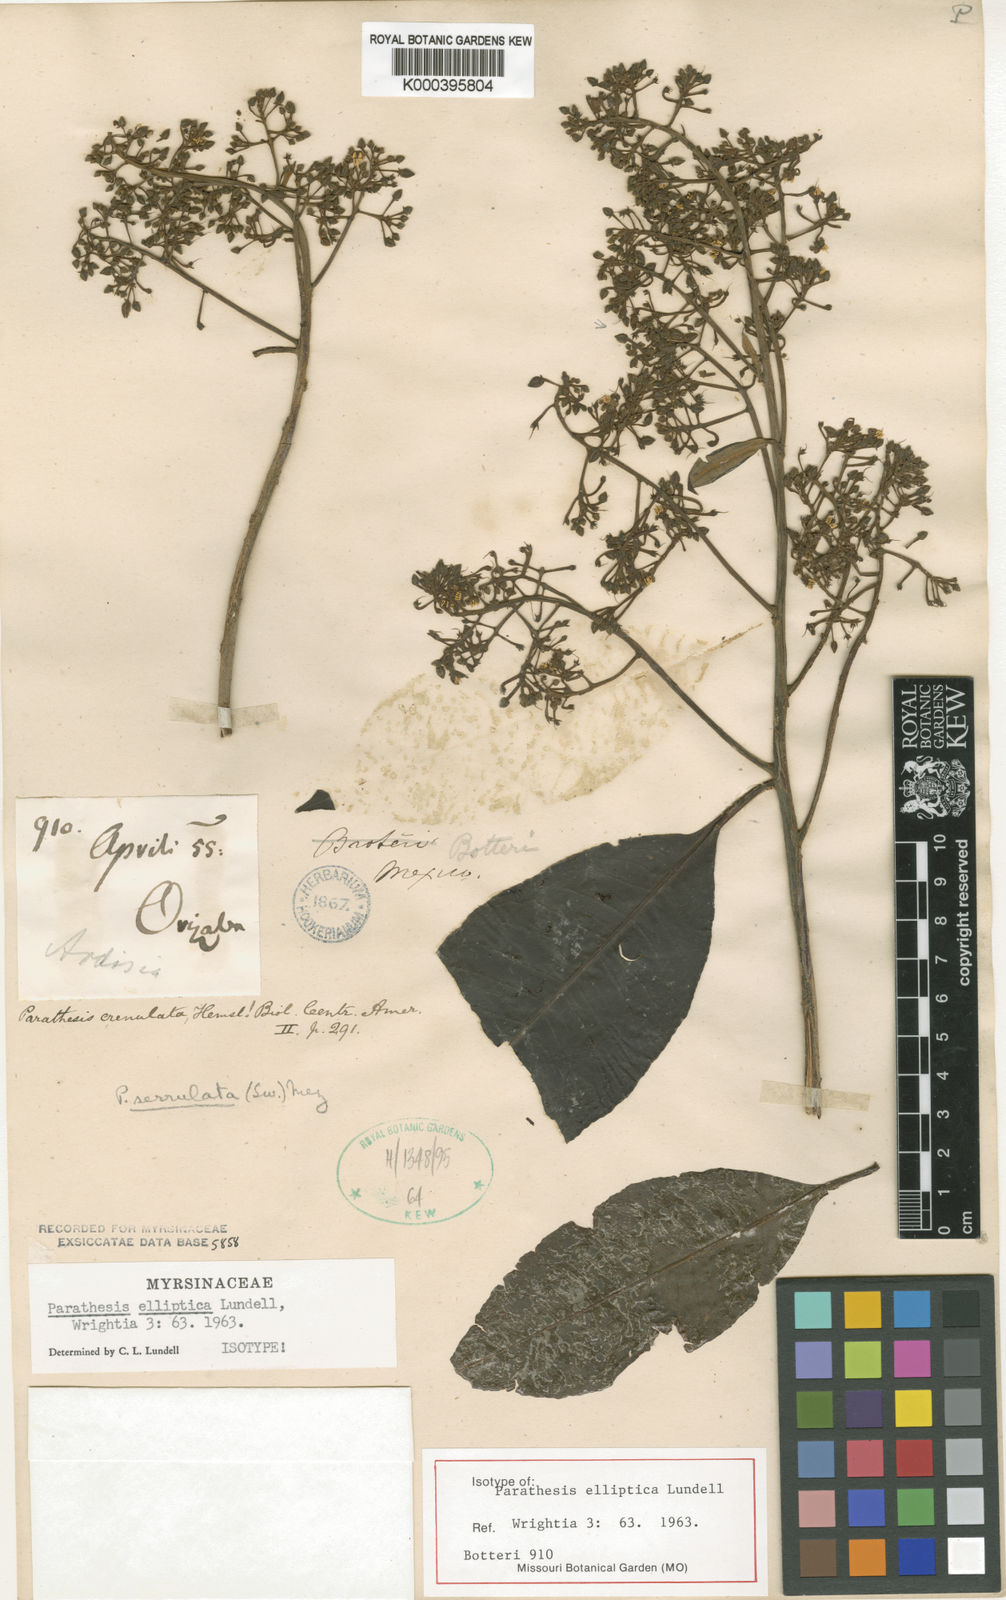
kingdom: Plantae
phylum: Tracheophyta
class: Magnoliopsida
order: Ericales
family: Primulaceae
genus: Parathesis
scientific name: Parathesis donnell-smithii
